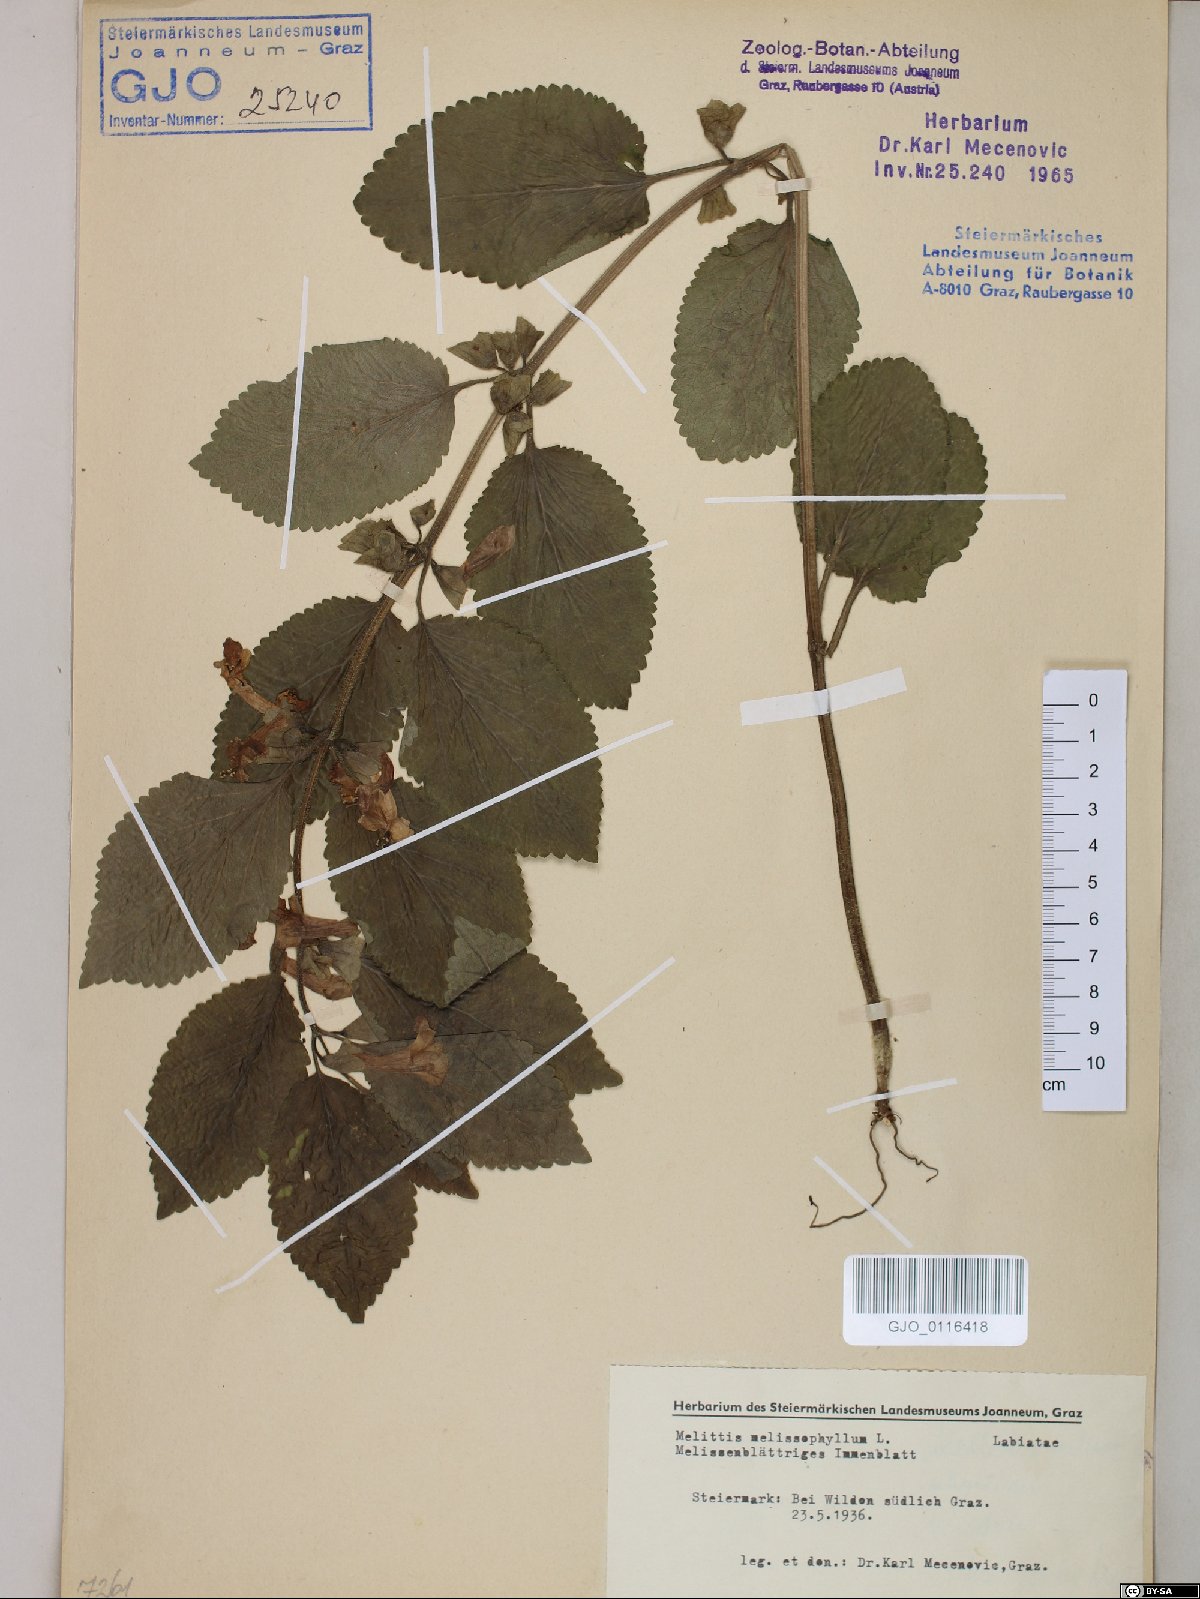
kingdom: Plantae
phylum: Tracheophyta
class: Magnoliopsida
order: Lamiales
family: Lamiaceae
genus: Melittis
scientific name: Melittis melissophyllum
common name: Bastard balm
